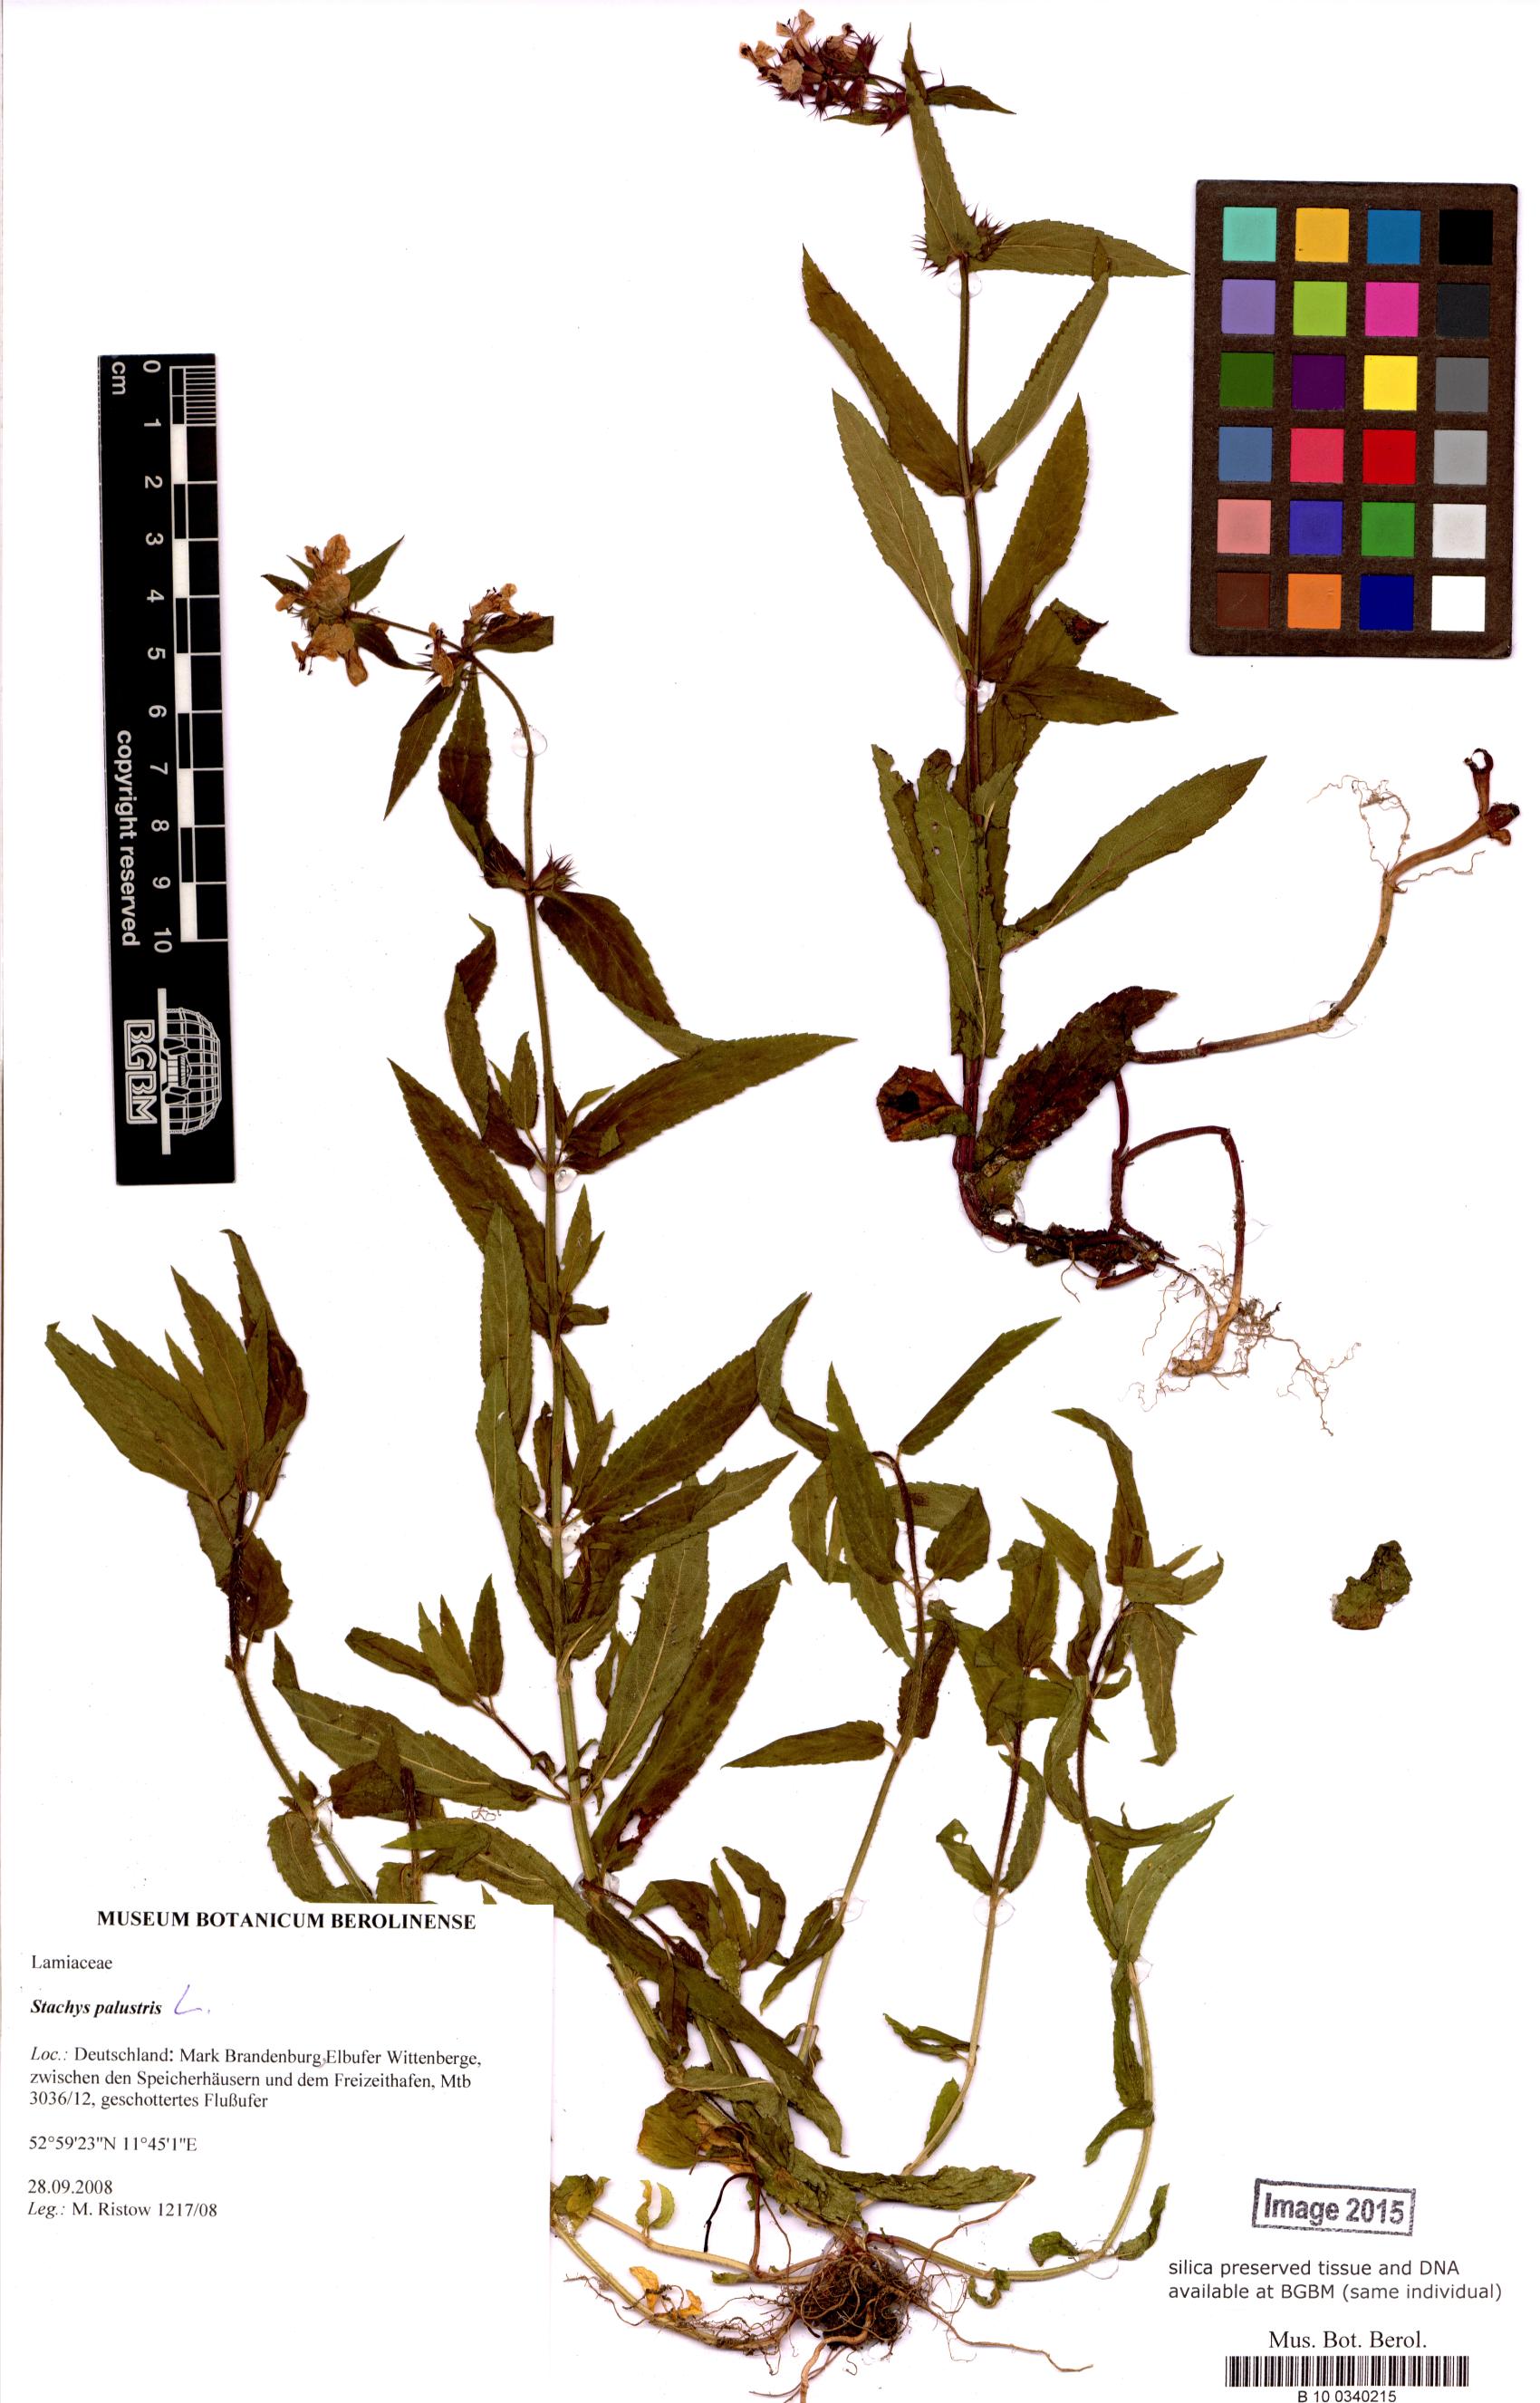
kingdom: Plantae
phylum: Tracheophyta
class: Magnoliopsida
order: Lamiales
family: Lamiaceae
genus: Stachys
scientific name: Stachys palustris
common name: Marsh woundwort
